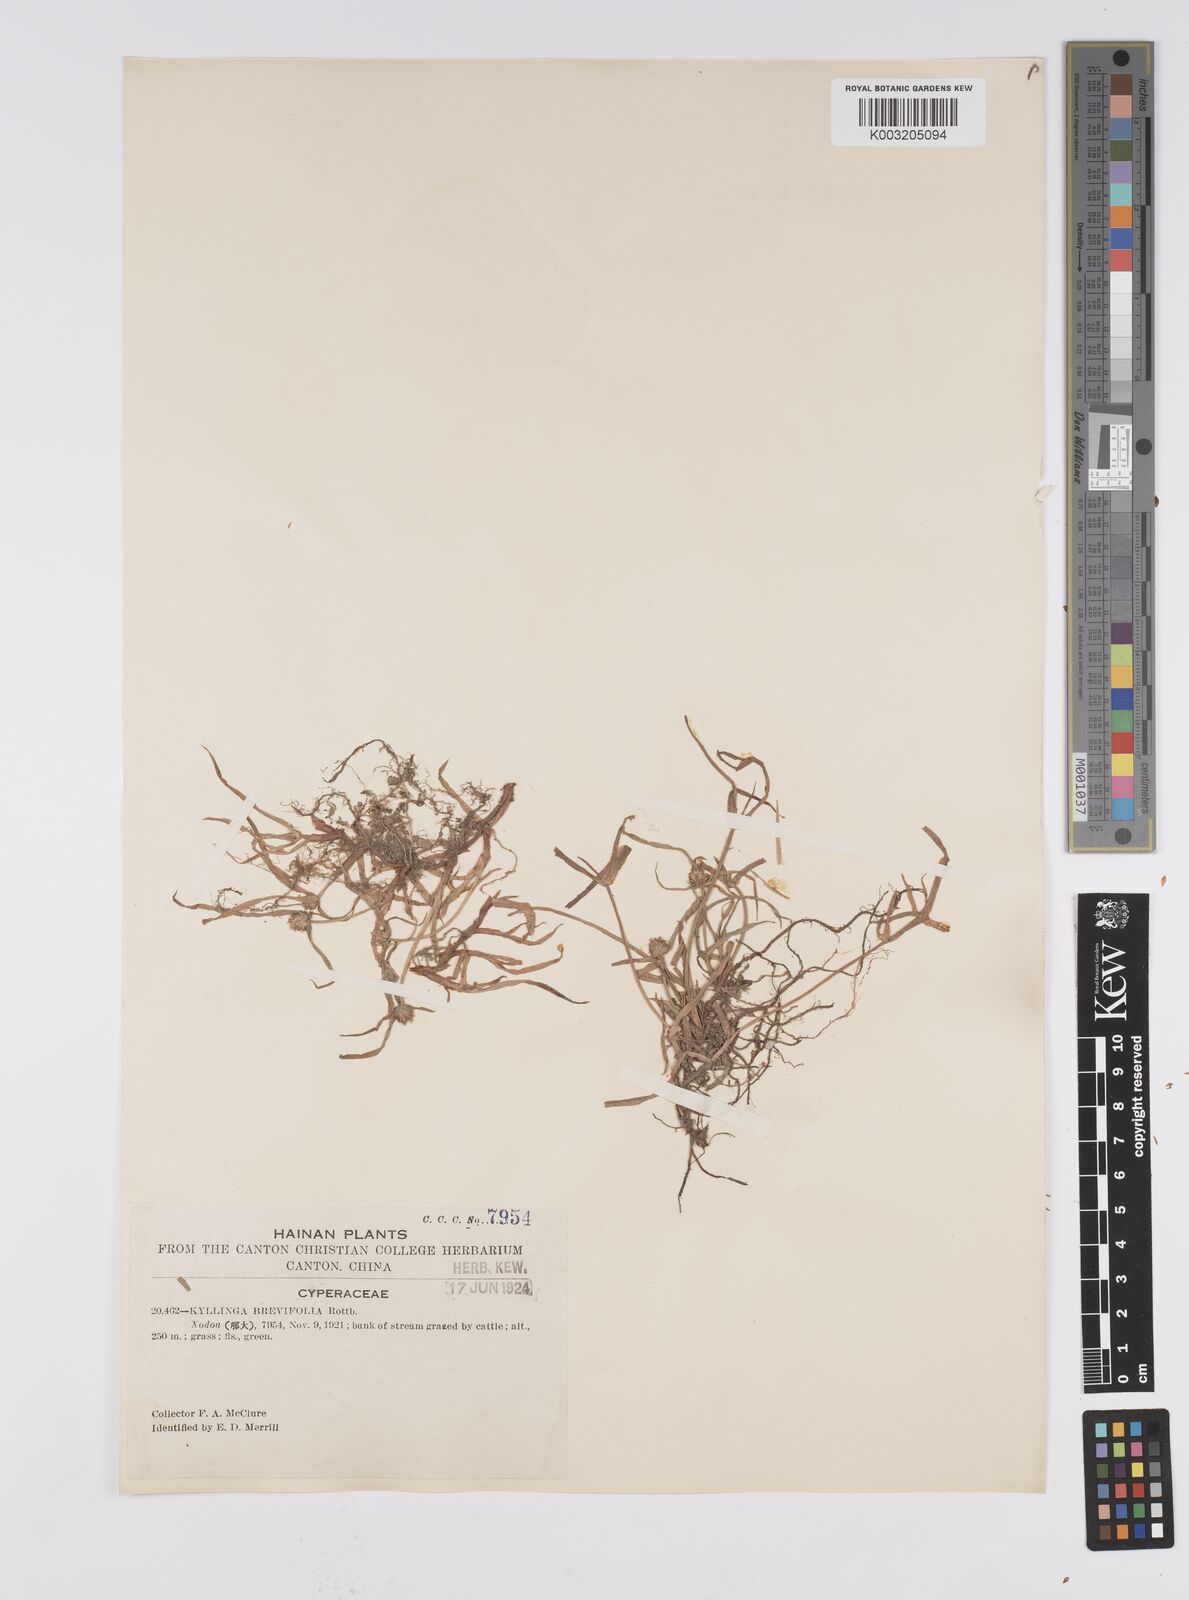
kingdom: Plantae
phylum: Tracheophyta
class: Liliopsida
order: Poales
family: Cyperaceae
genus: Cyperus
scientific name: Cyperus brevifolius
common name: Globe kyllinga
